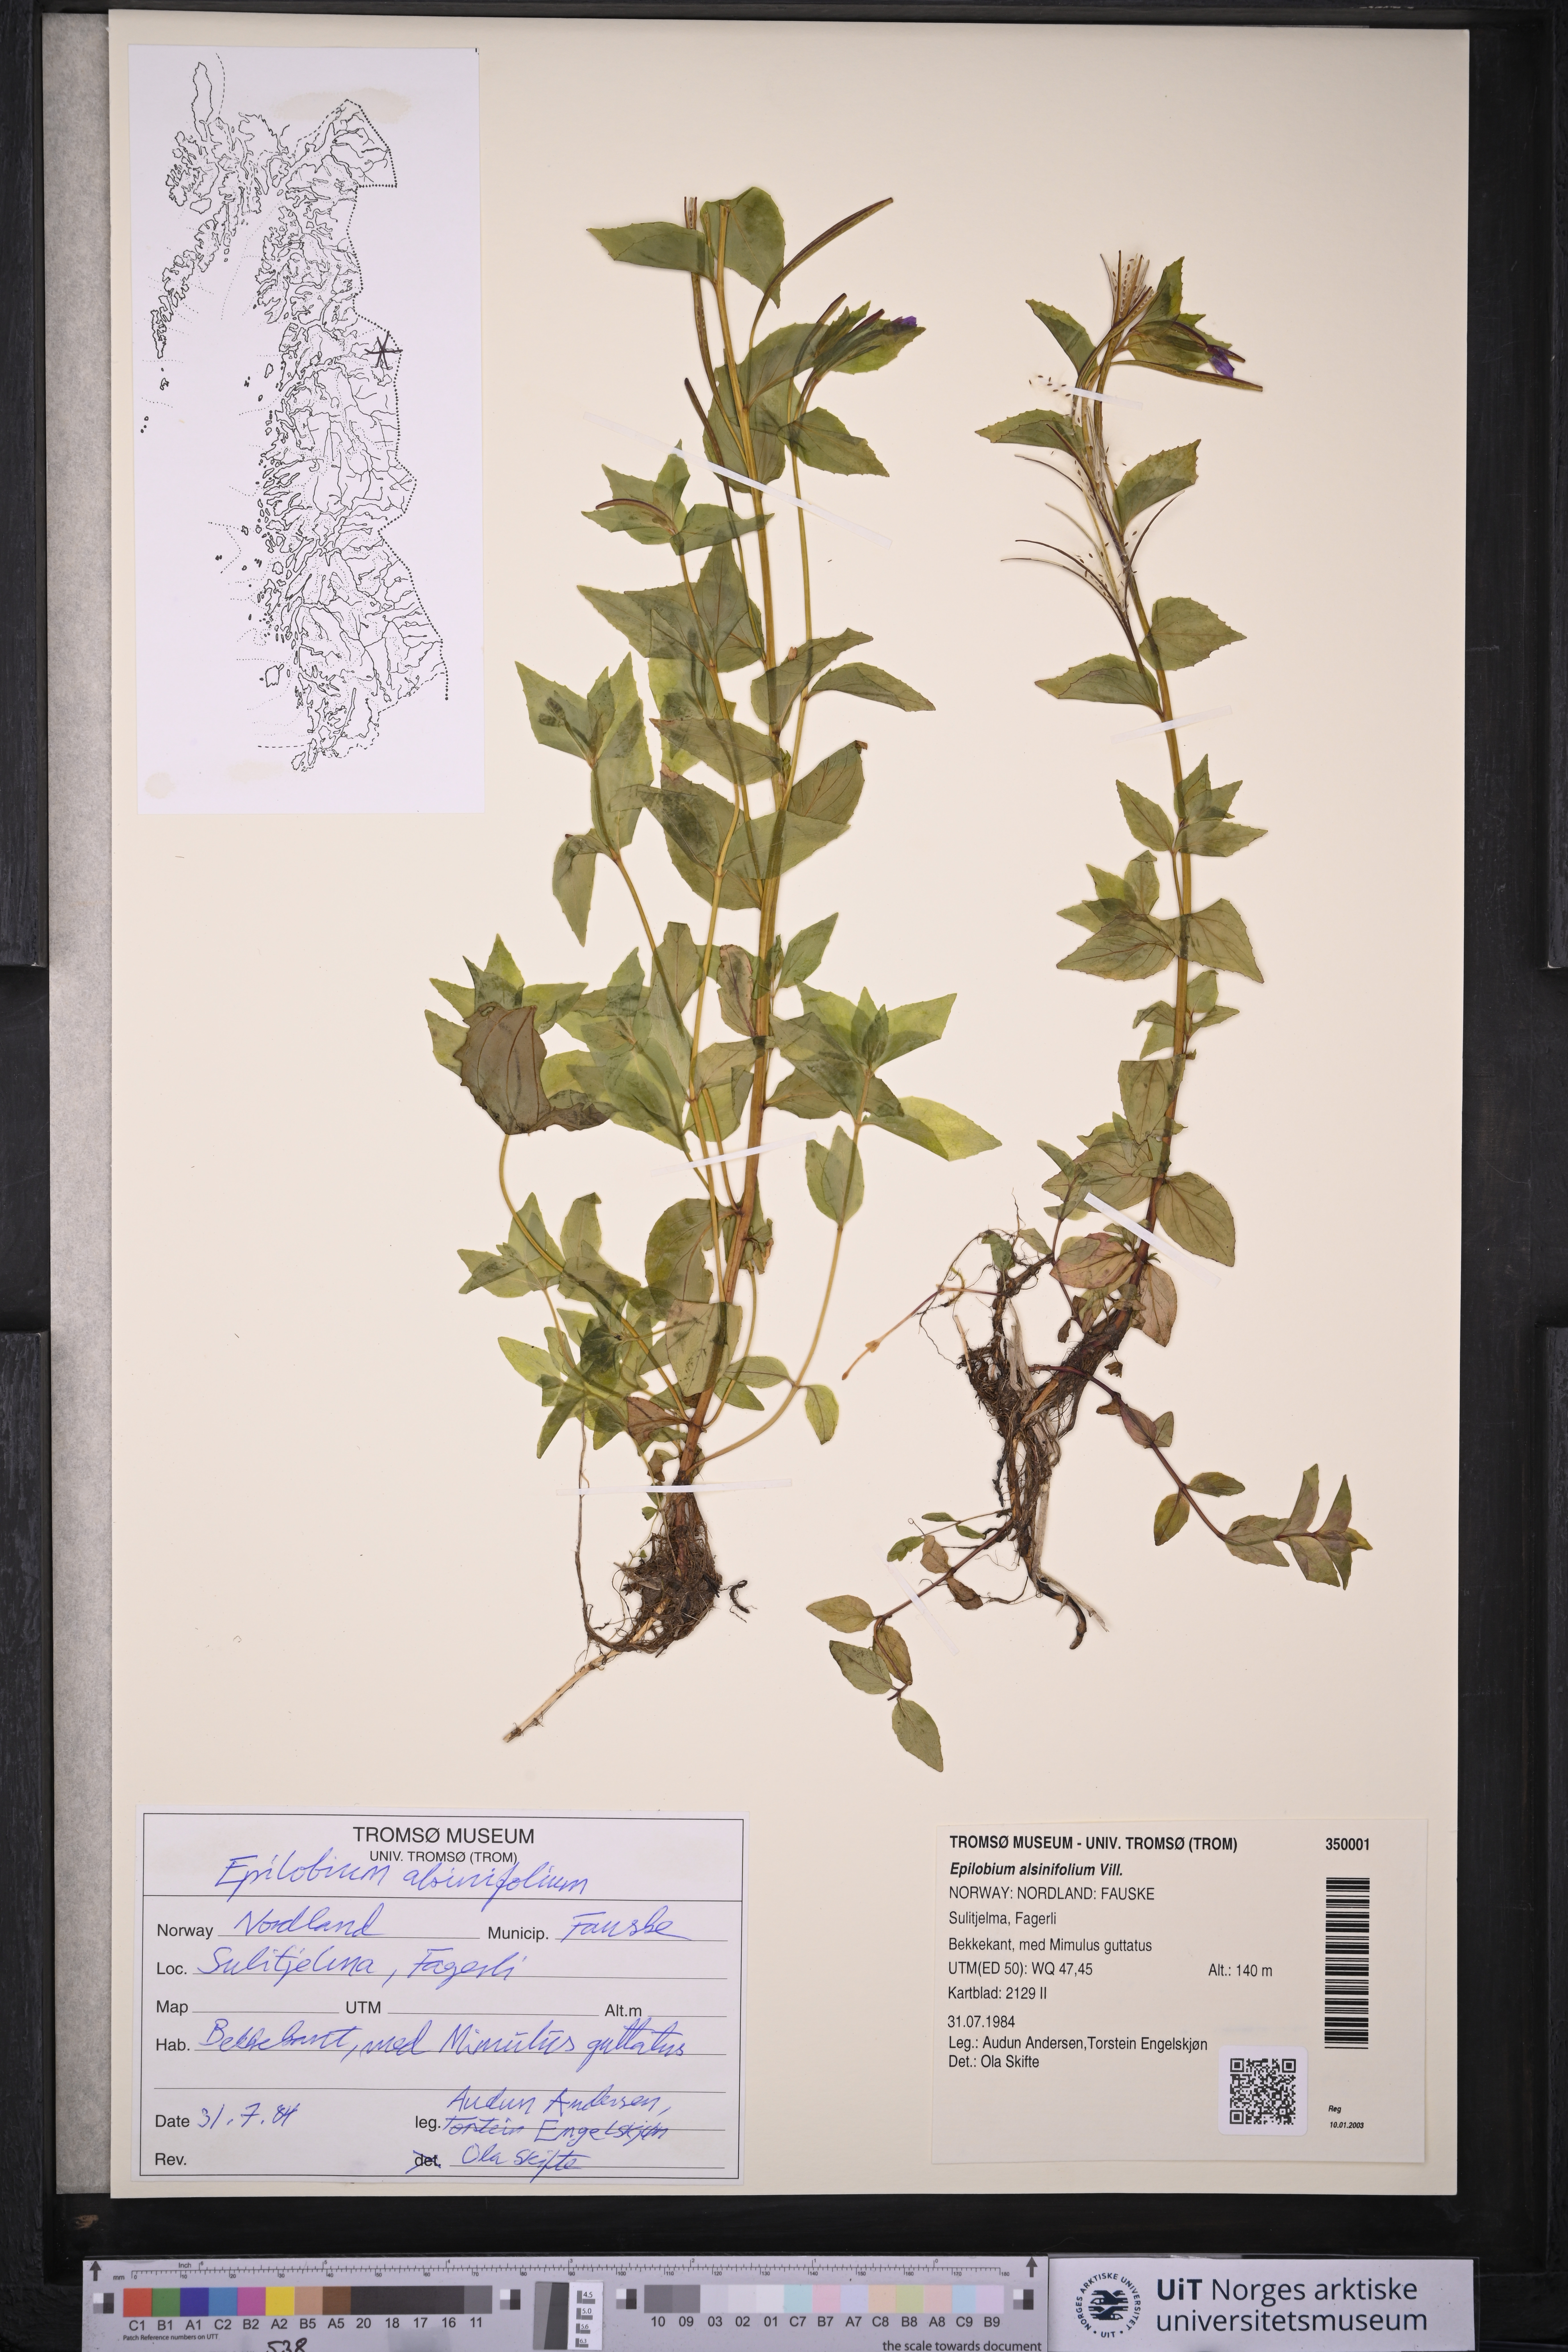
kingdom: Plantae
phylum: Tracheophyta
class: Magnoliopsida
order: Myrtales
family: Onagraceae
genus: Epilobium
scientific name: Epilobium alsinifolium
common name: Chickweed willowherb
